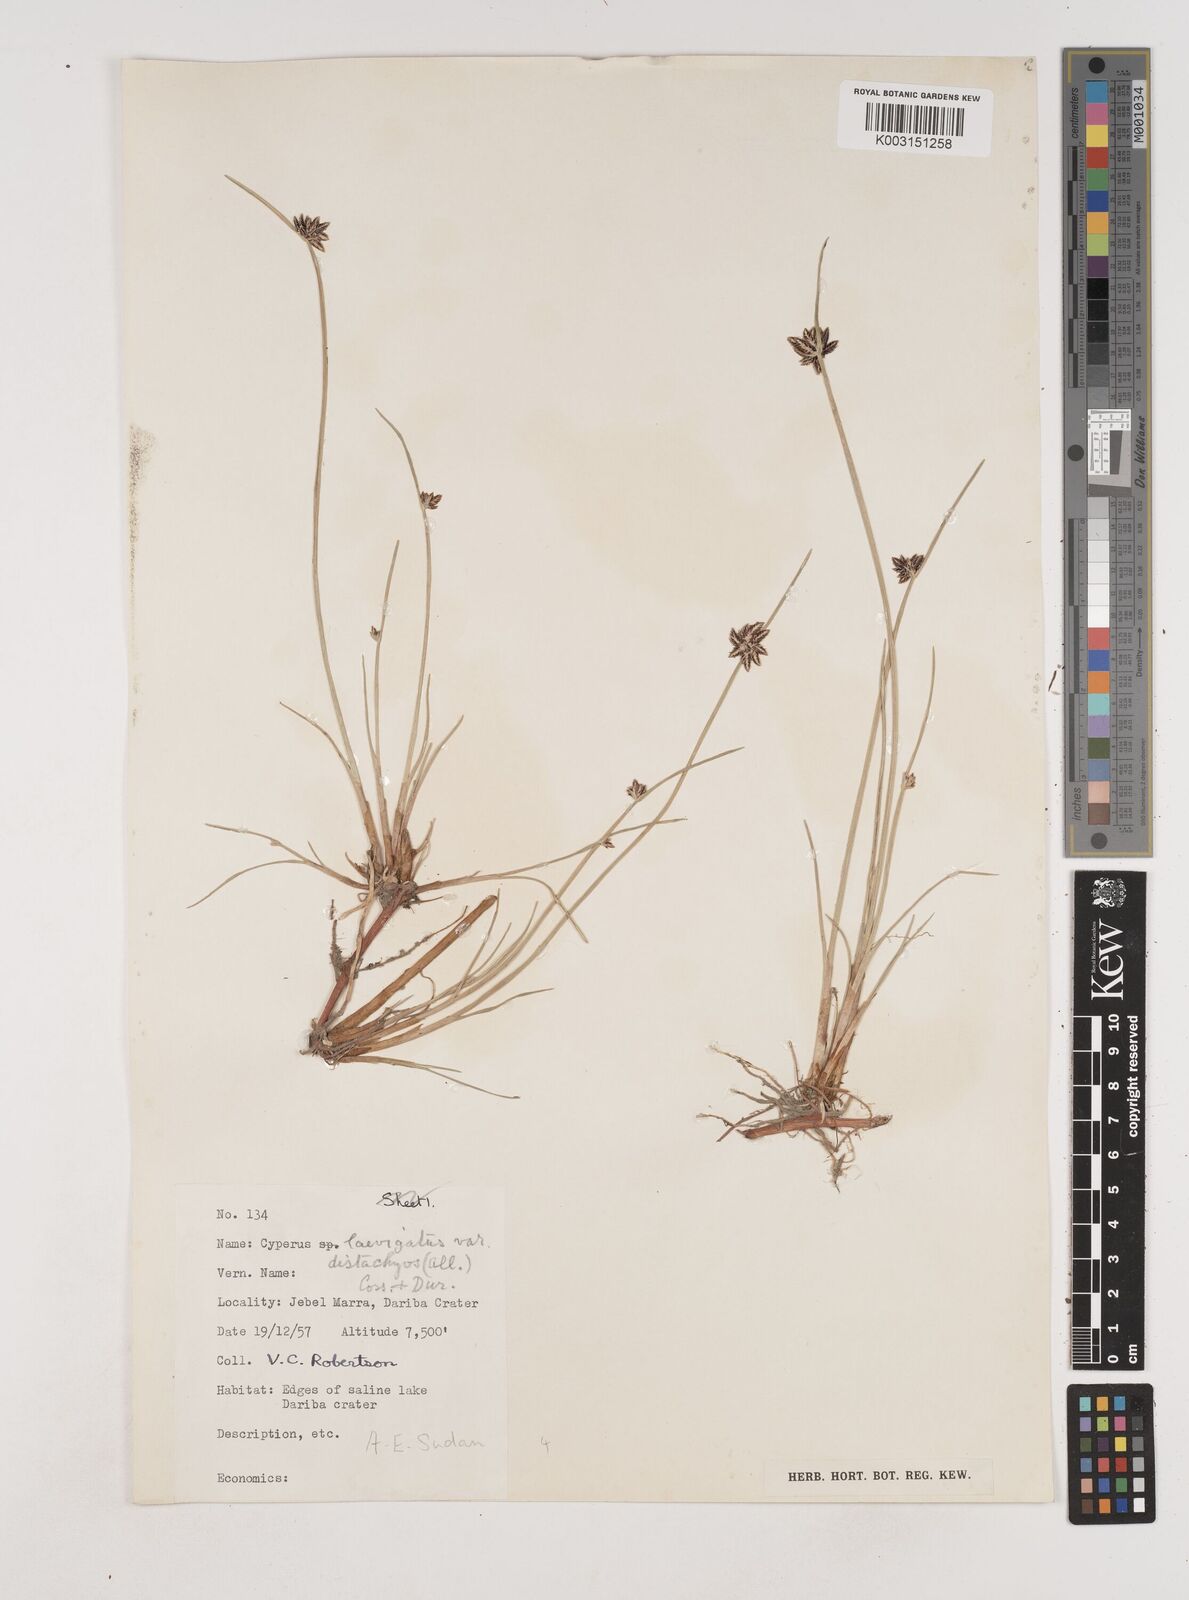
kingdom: Plantae
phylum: Tracheophyta
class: Liliopsida
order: Poales
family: Cyperaceae
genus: Cyperus
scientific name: Cyperus laevigatus
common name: Smooth flat sedge
